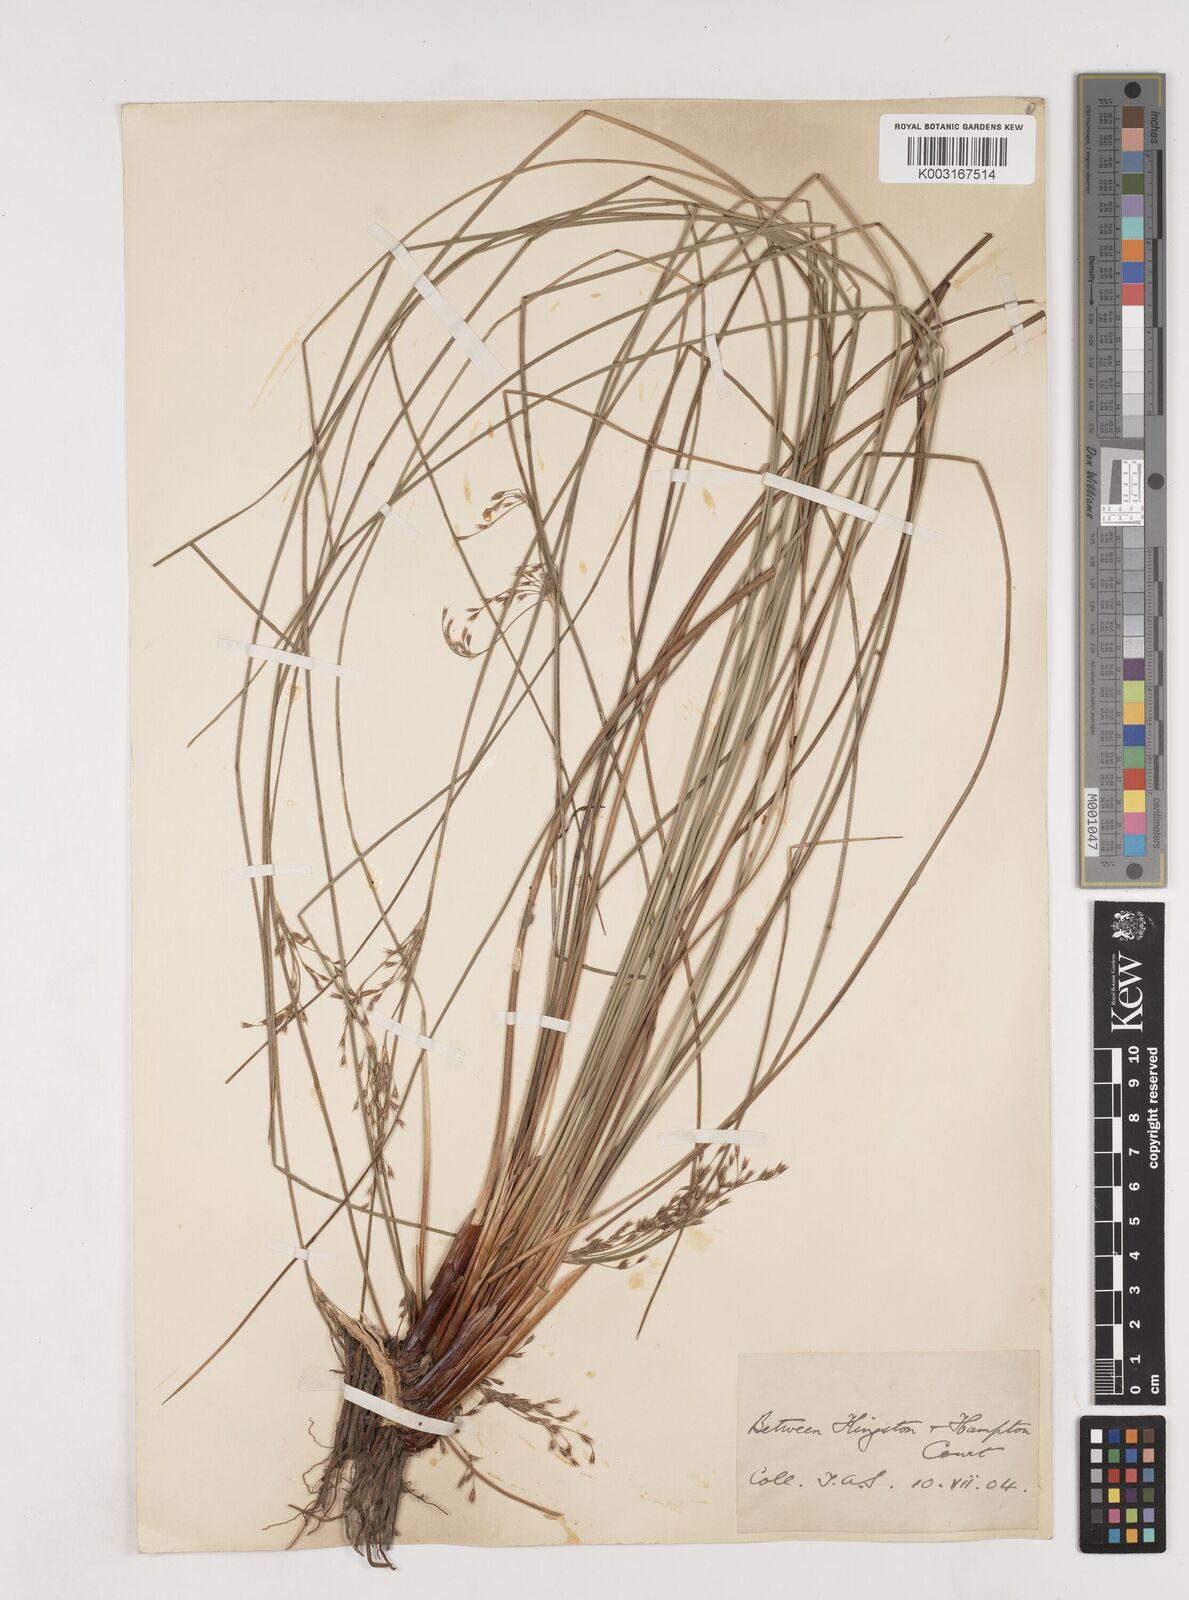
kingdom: Plantae
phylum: Tracheophyta
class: Liliopsida
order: Poales
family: Juncaceae
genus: Juncus
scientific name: Juncus inflexus
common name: Hard rush
